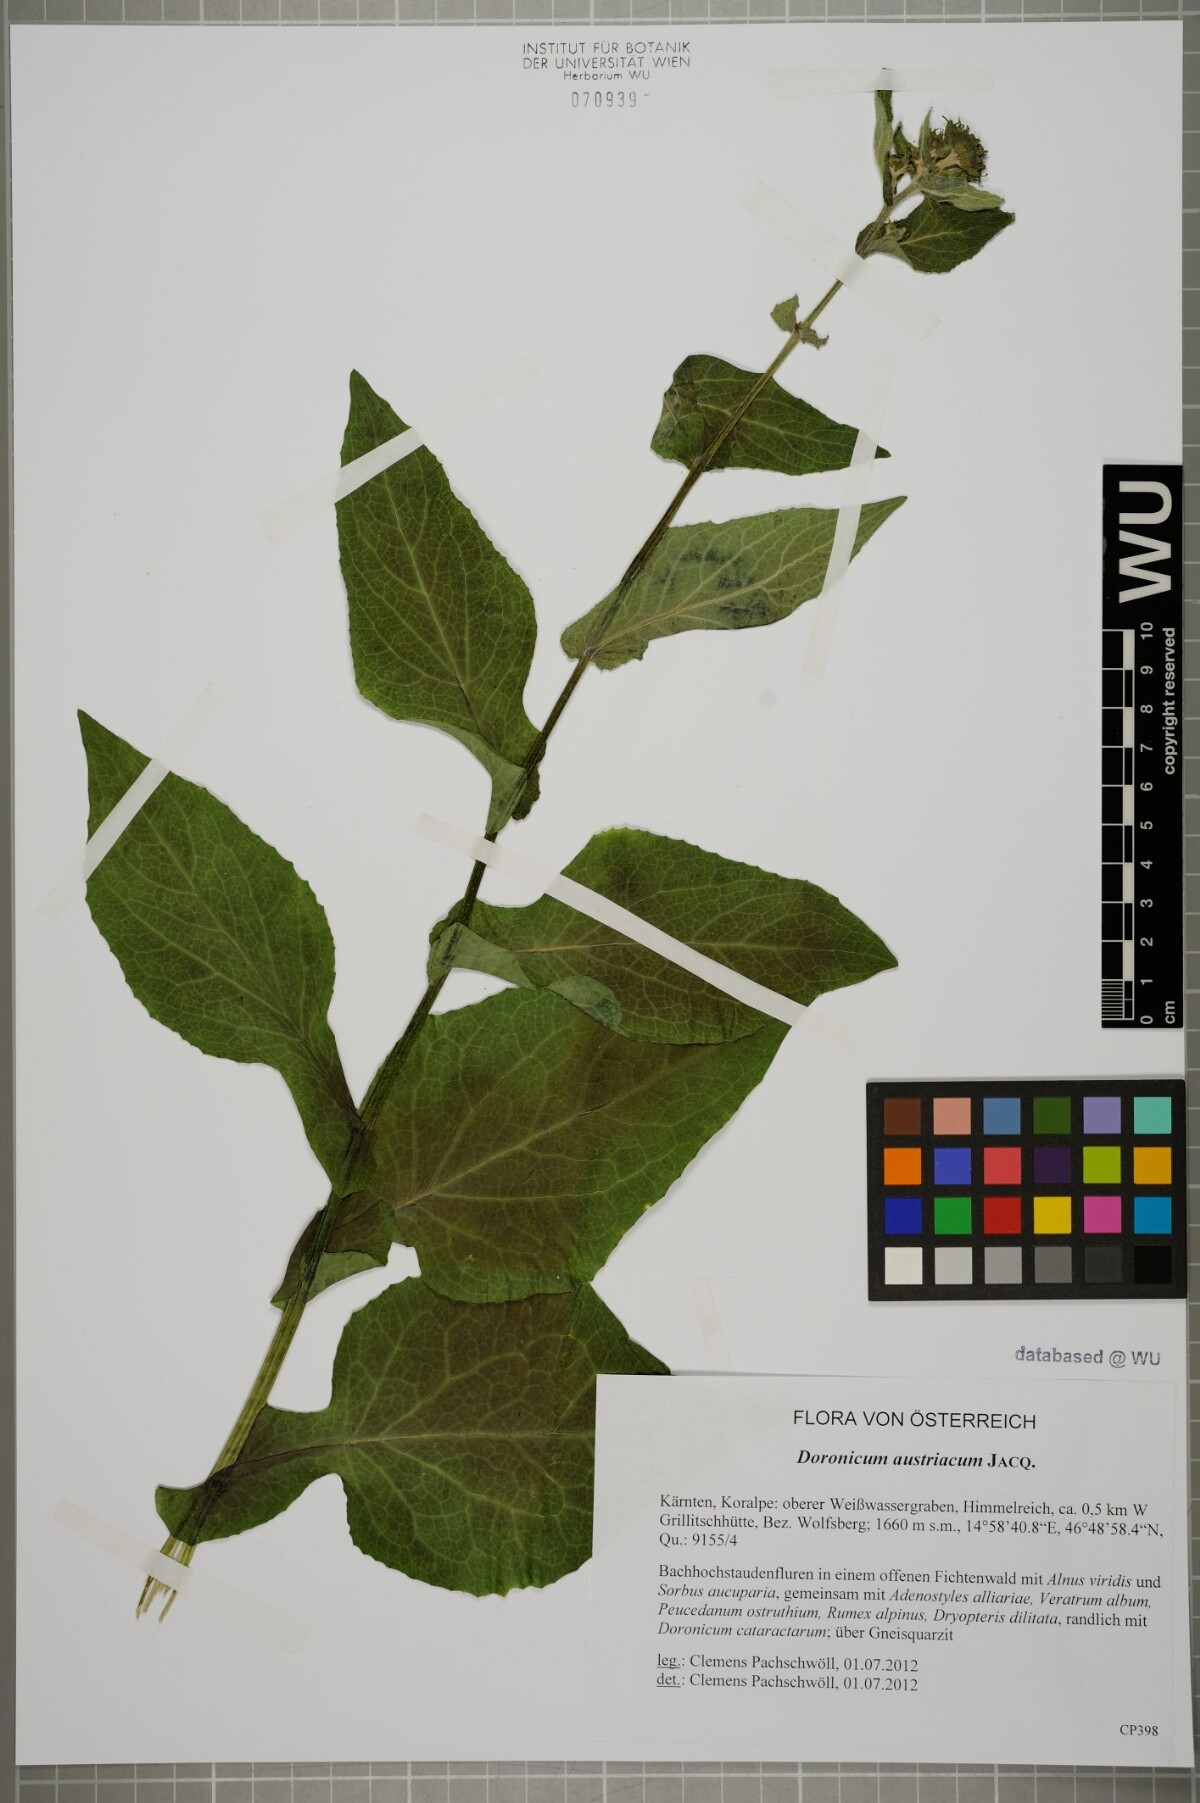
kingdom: Plantae
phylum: Tracheophyta
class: Magnoliopsida
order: Asterales
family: Asteraceae
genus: Doronicum
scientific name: Doronicum austriacum
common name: Austrian leopard's-bane
